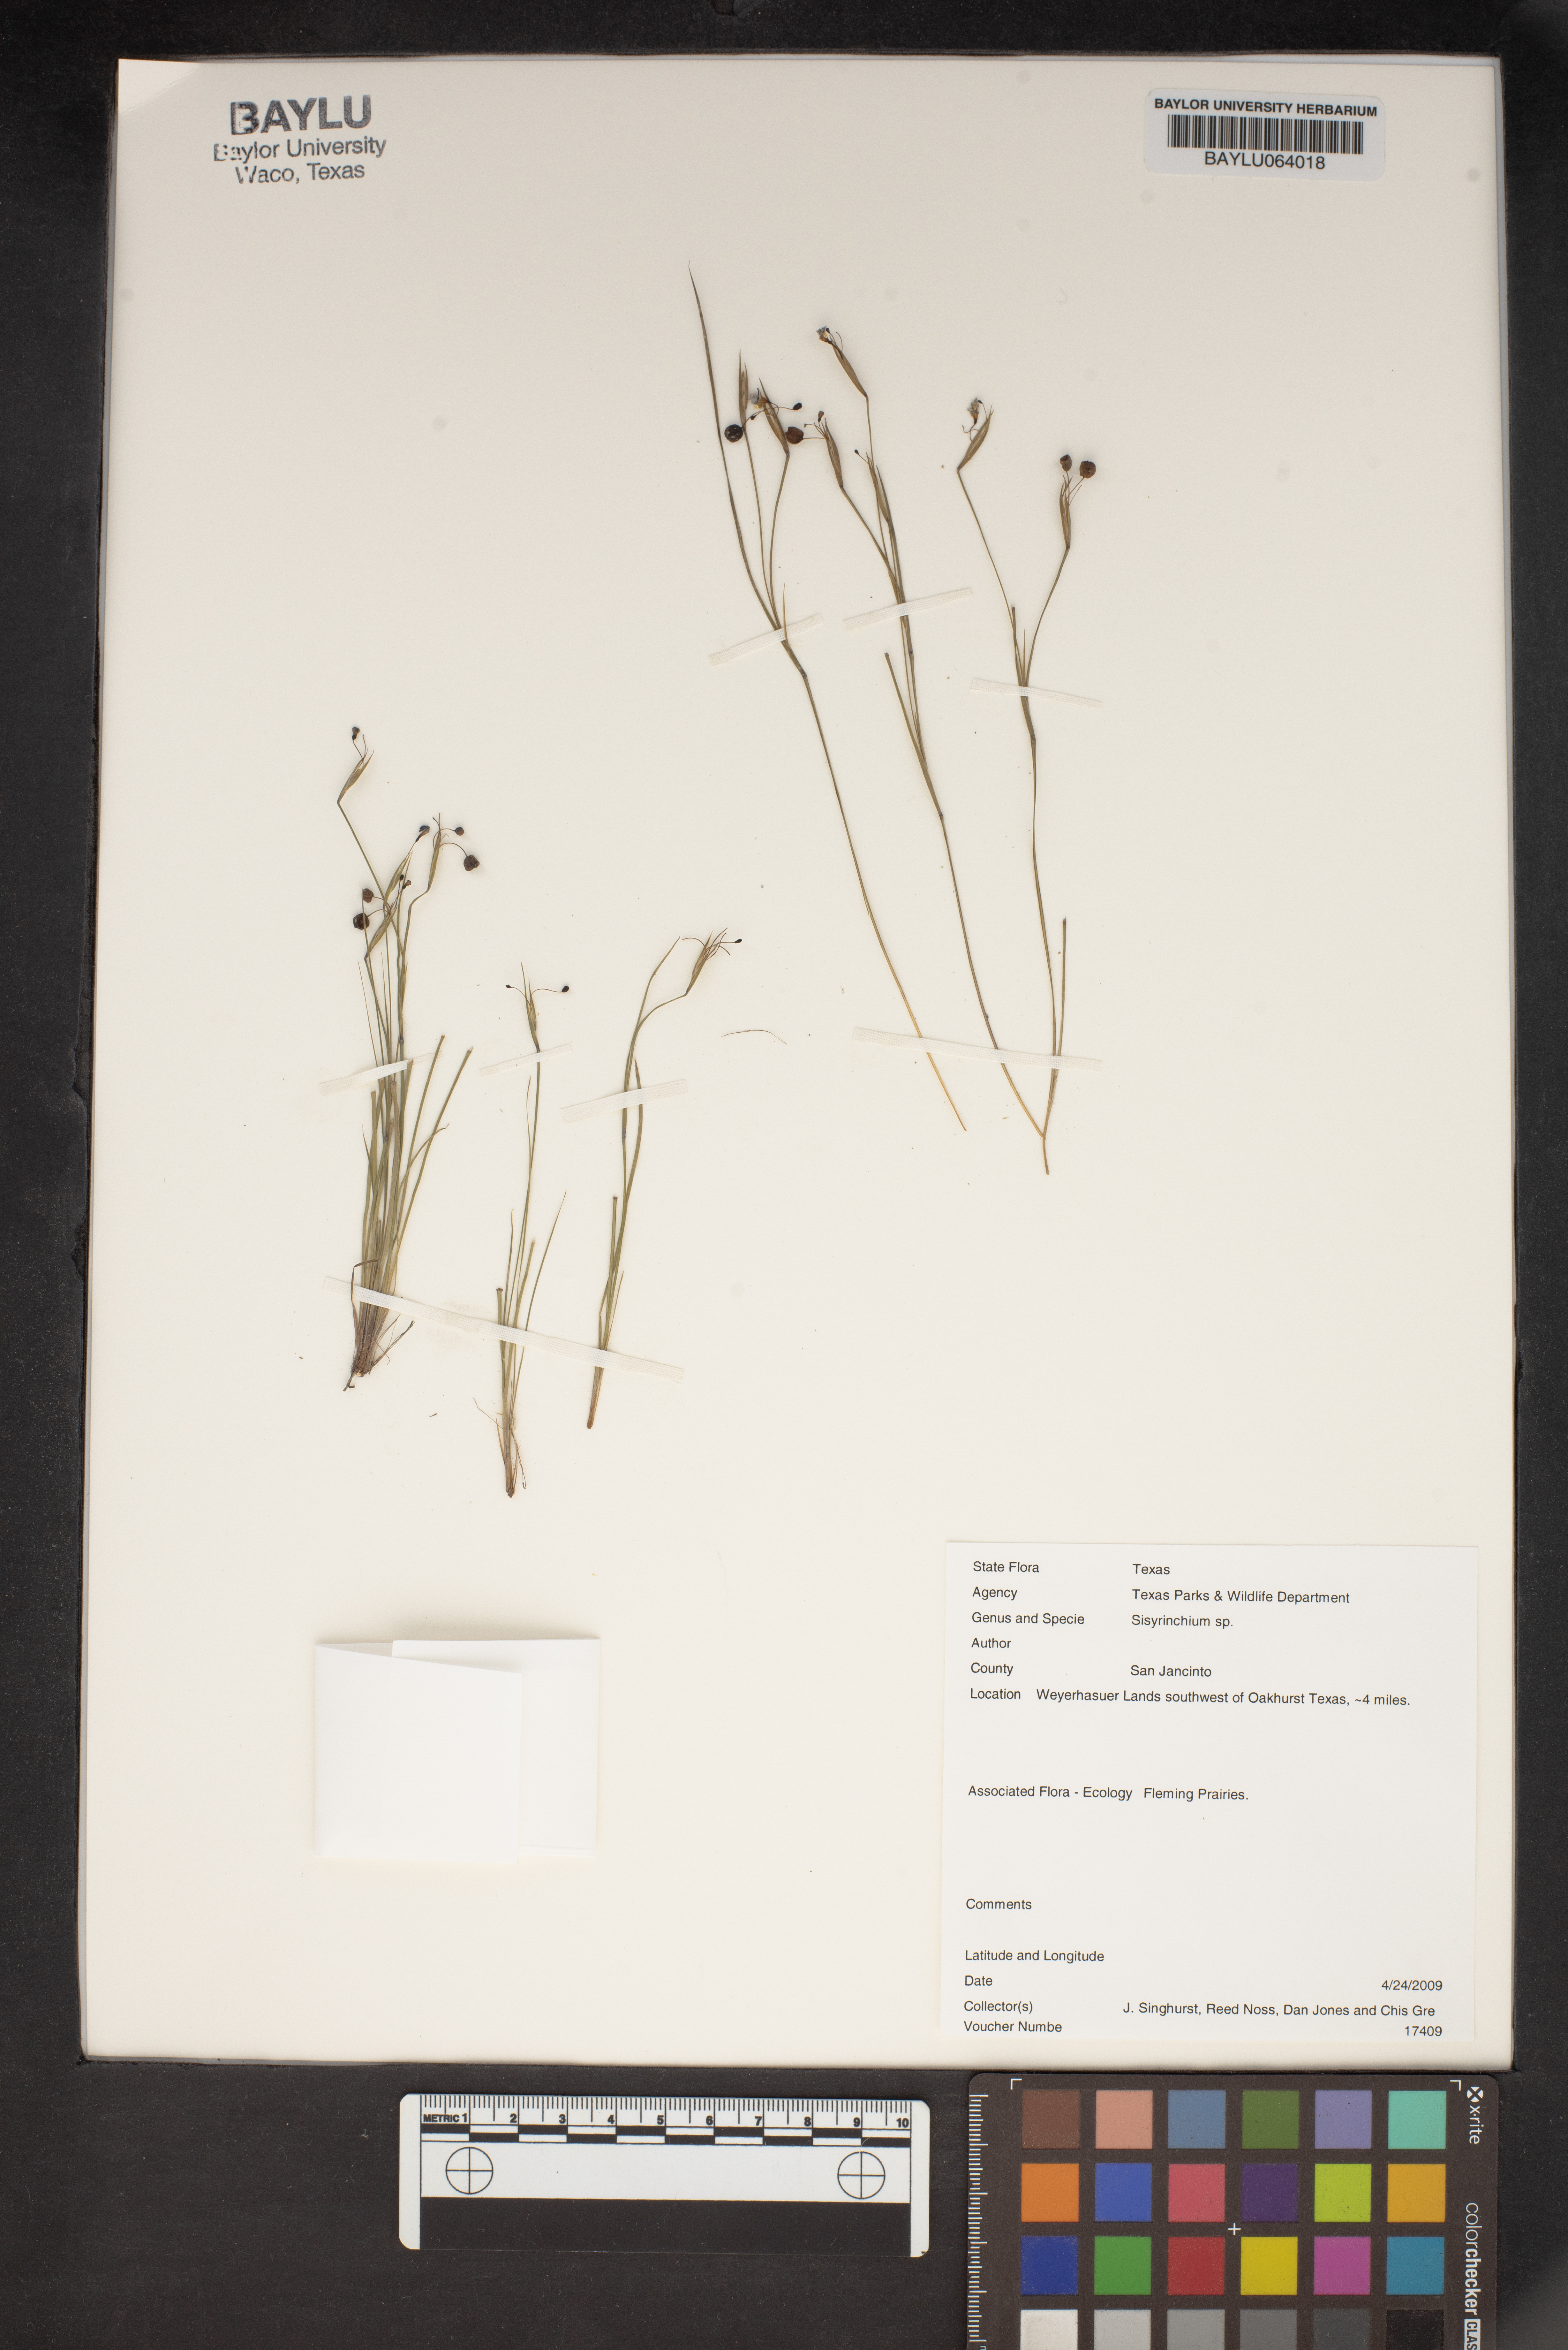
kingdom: Plantae
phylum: Tracheophyta
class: Liliopsida
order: Asparagales
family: Iridaceae
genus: Sisyrinchium
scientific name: Sisyrinchium
